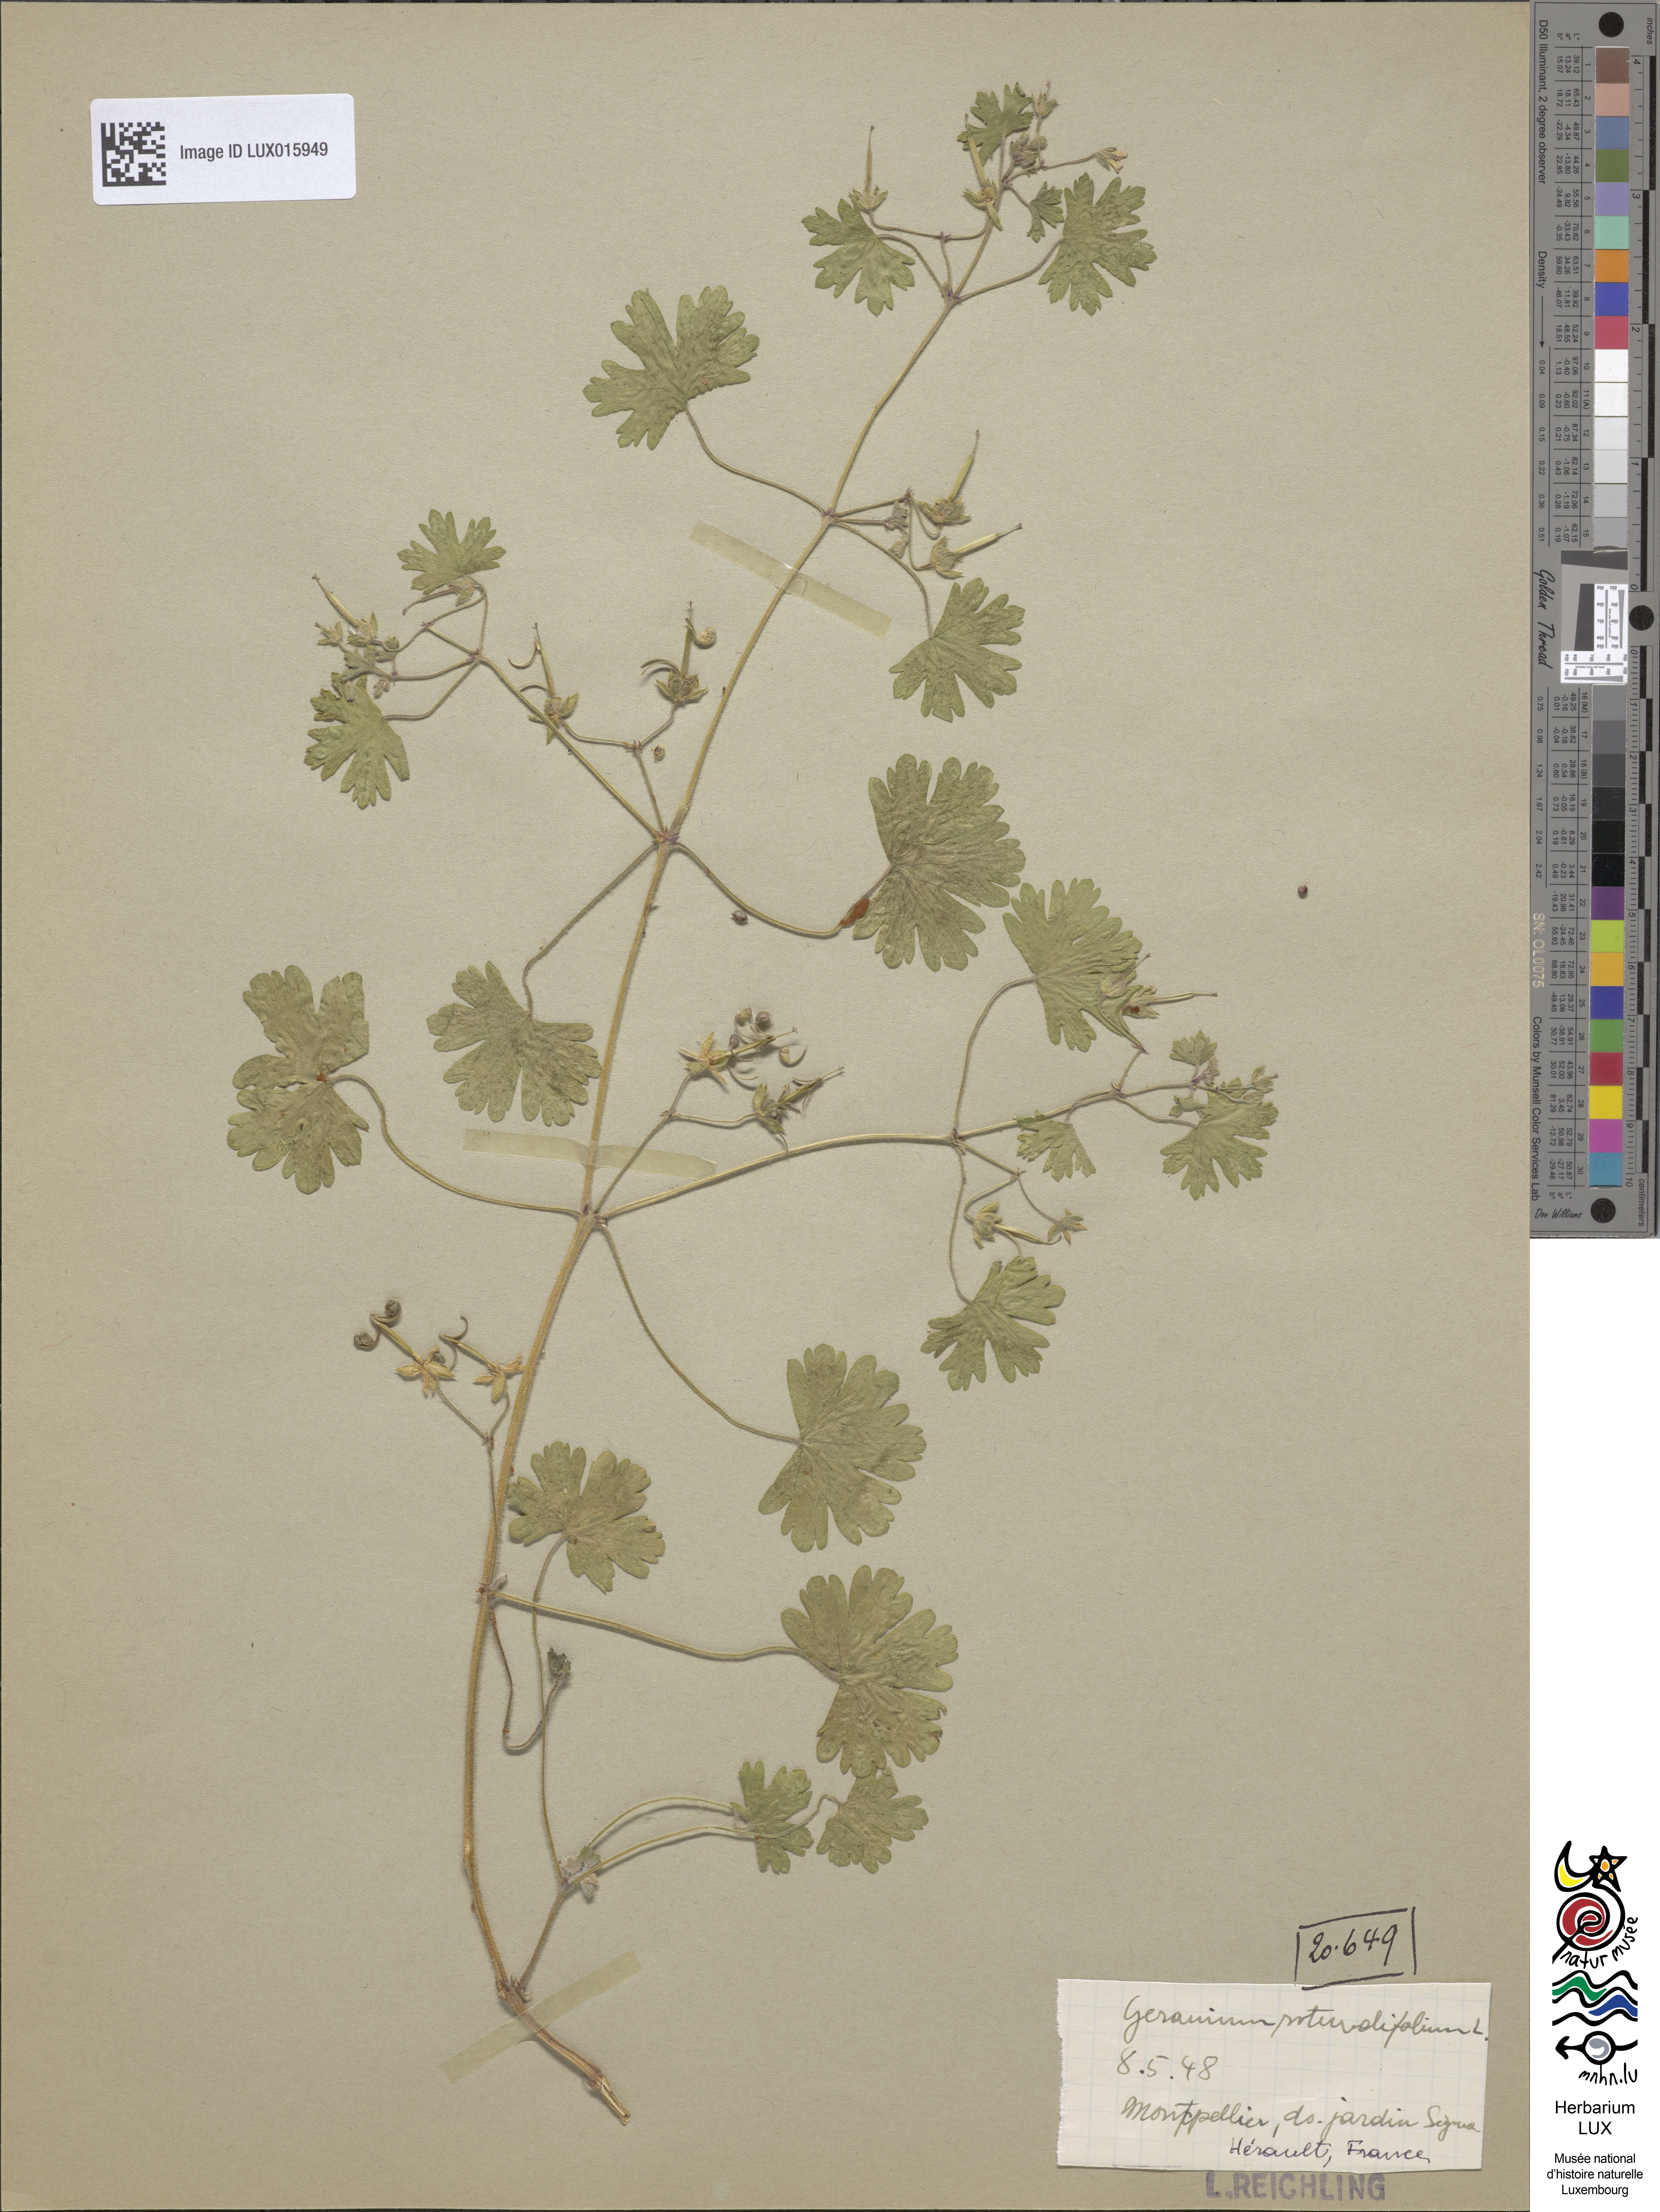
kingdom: Plantae
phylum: Tracheophyta
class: Magnoliopsida
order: Geraniales
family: Geraniaceae
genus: Geranium
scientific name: Geranium rotundifolium
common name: Round-leaved crane's-bill
